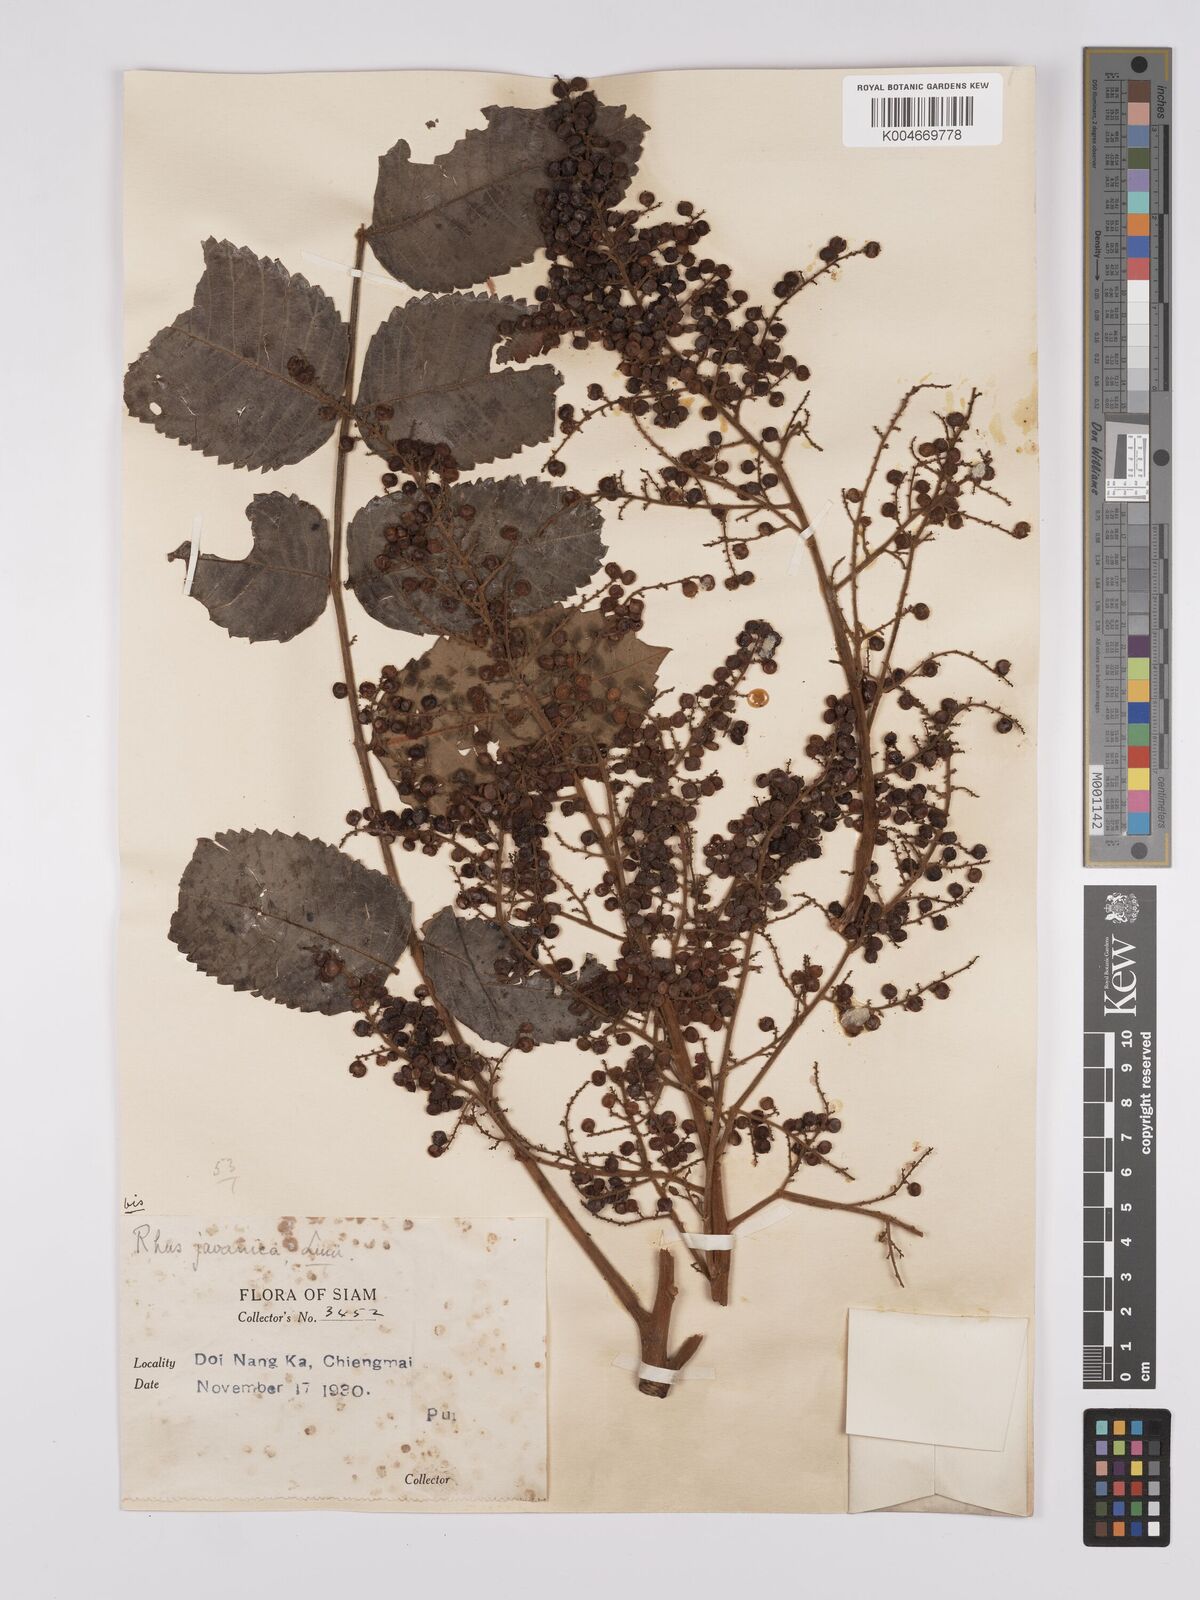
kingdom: Plantae
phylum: Tracheophyta
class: Magnoliopsida
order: Sapindales
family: Simaroubaceae
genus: Brucea
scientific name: Brucea javanica
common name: Macassar kernels
